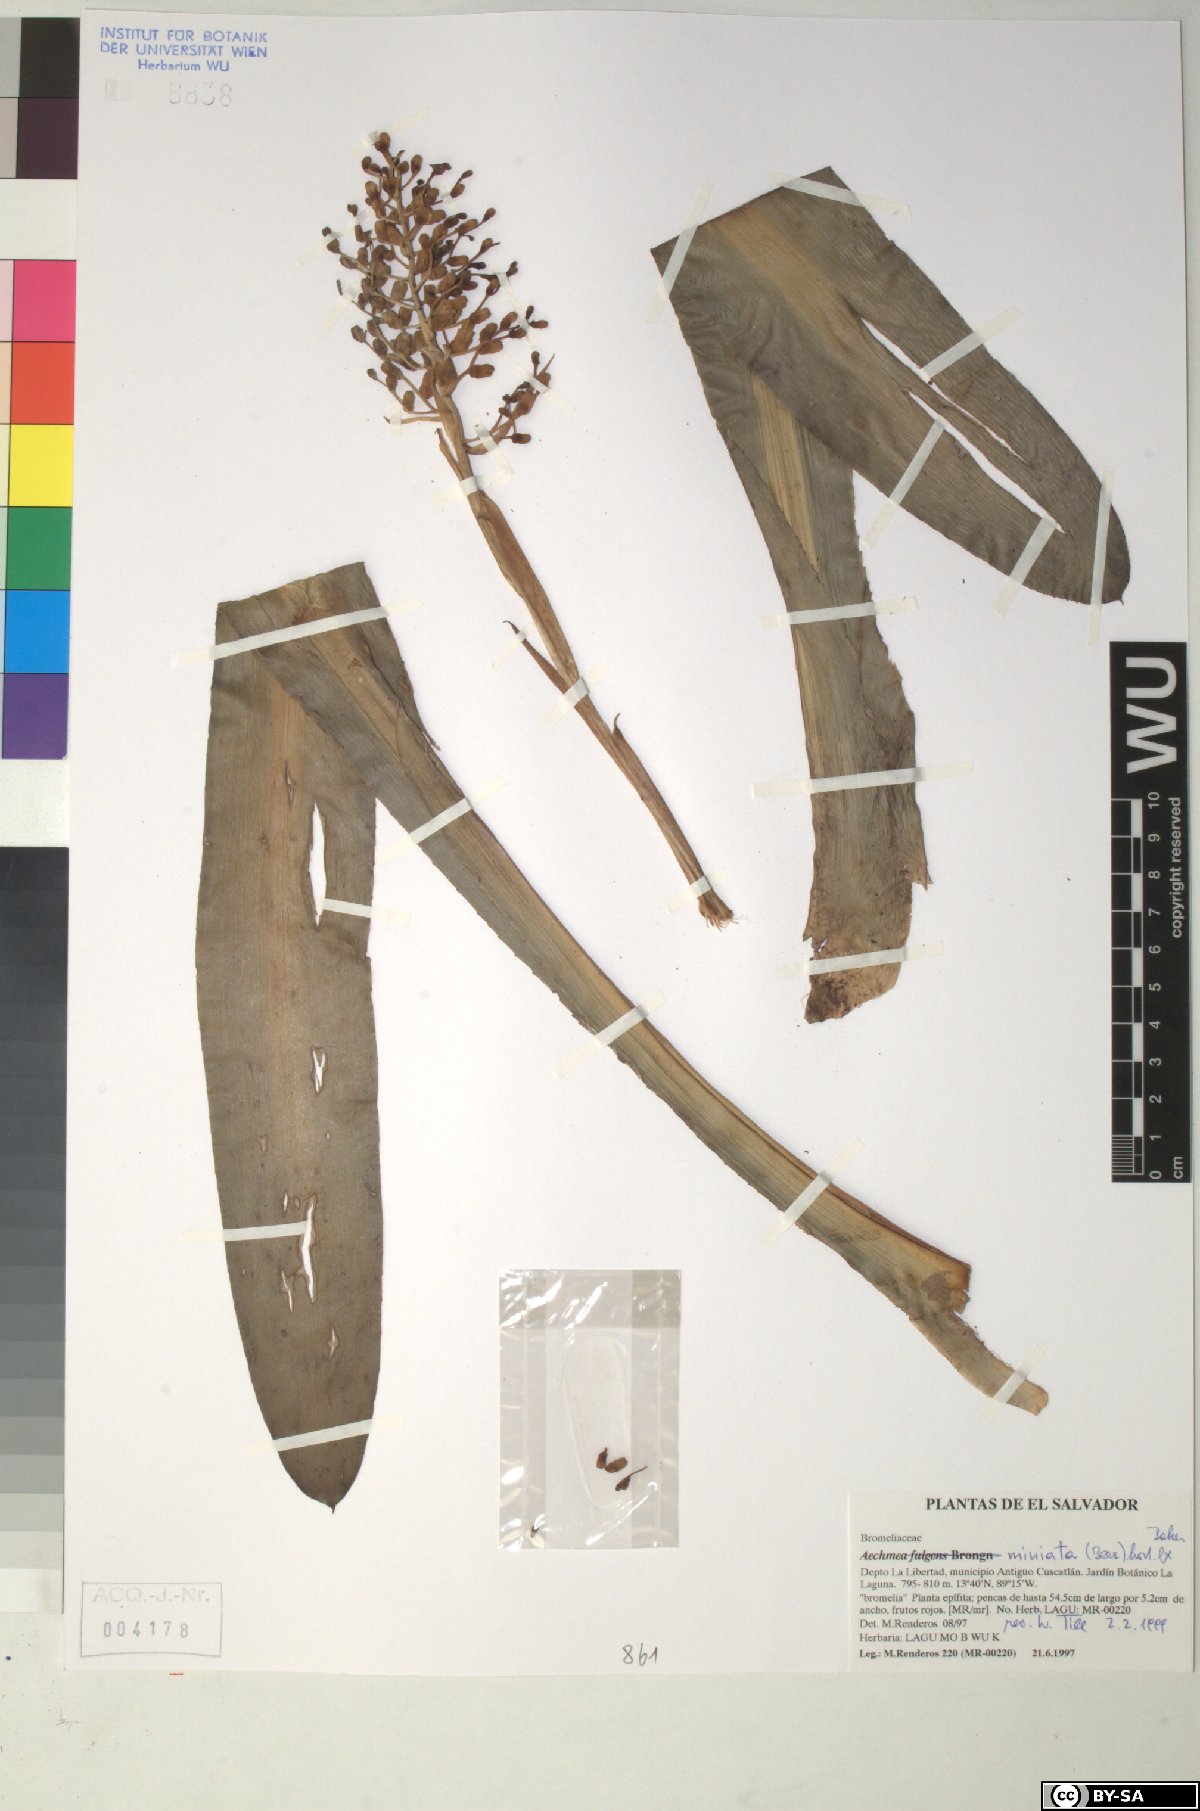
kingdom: Plantae
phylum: Tracheophyta
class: Liliopsida
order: Poales
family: Bromeliaceae
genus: Aechmea
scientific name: Aechmea miniata
